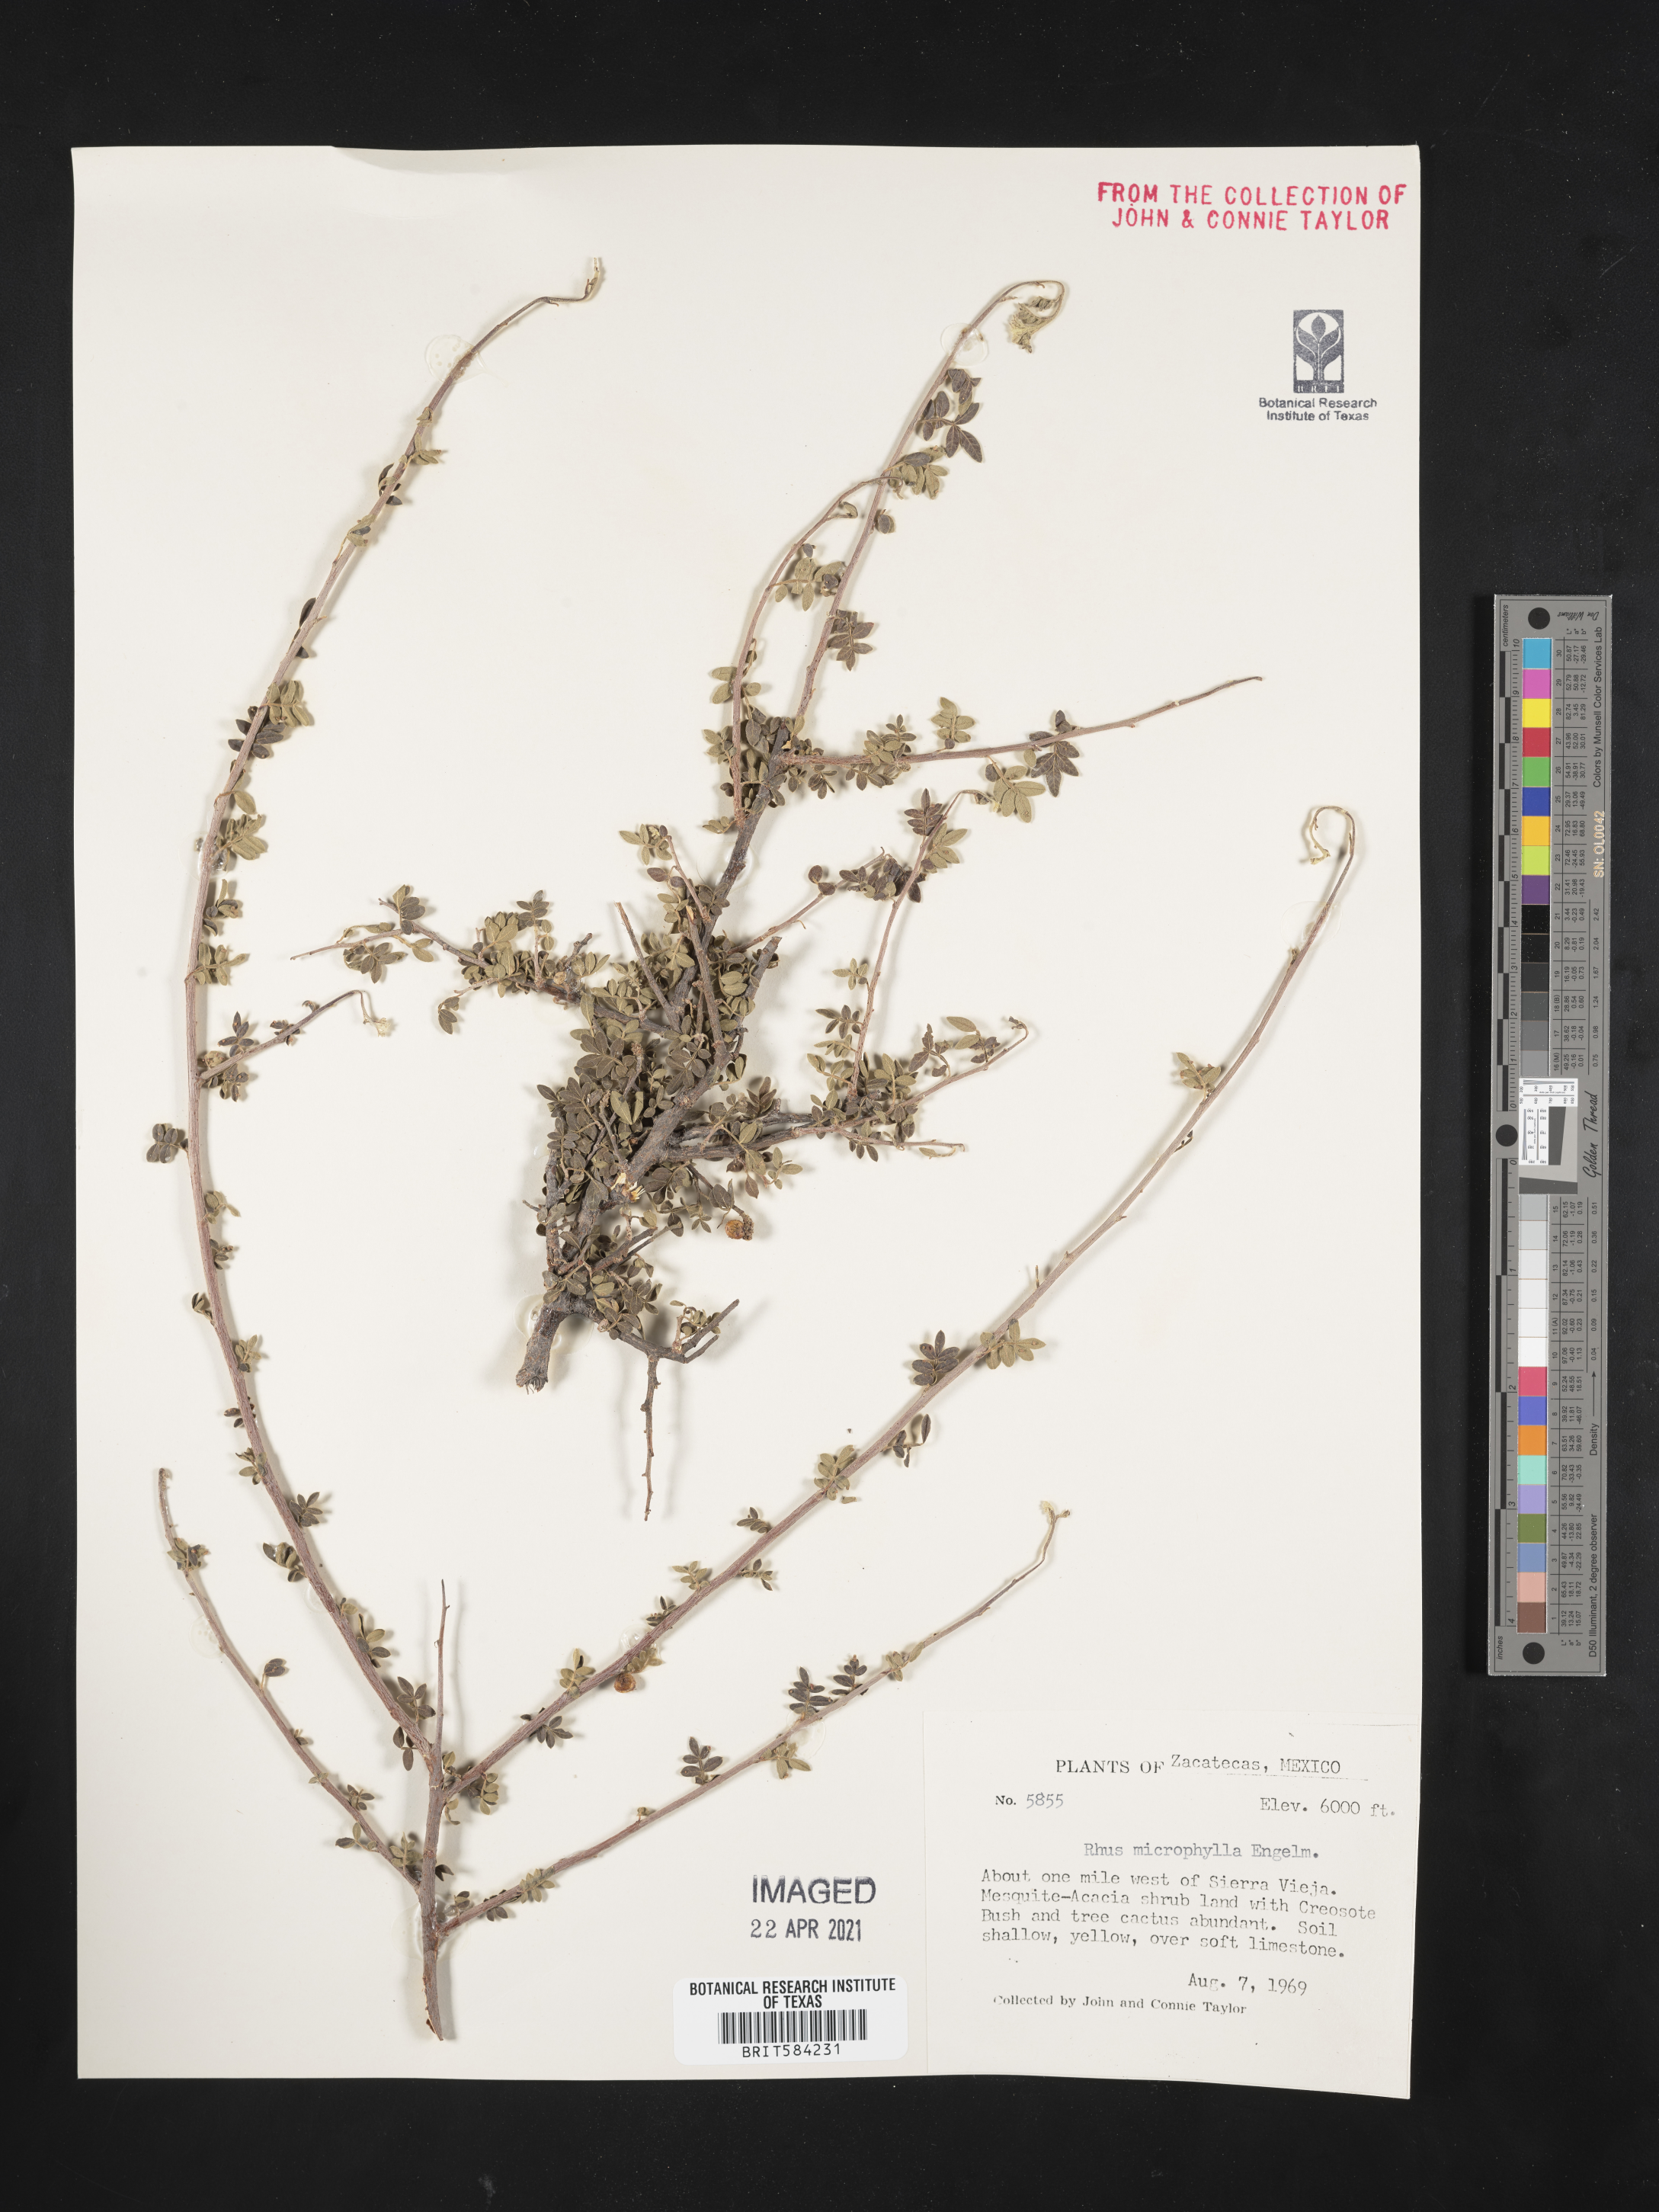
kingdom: Plantae
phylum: Tracheophyta
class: Magnoliopsida
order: Sapindales
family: Anacardiaceae
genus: Rhus
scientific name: Rhus microphylla
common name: Desert sumac
